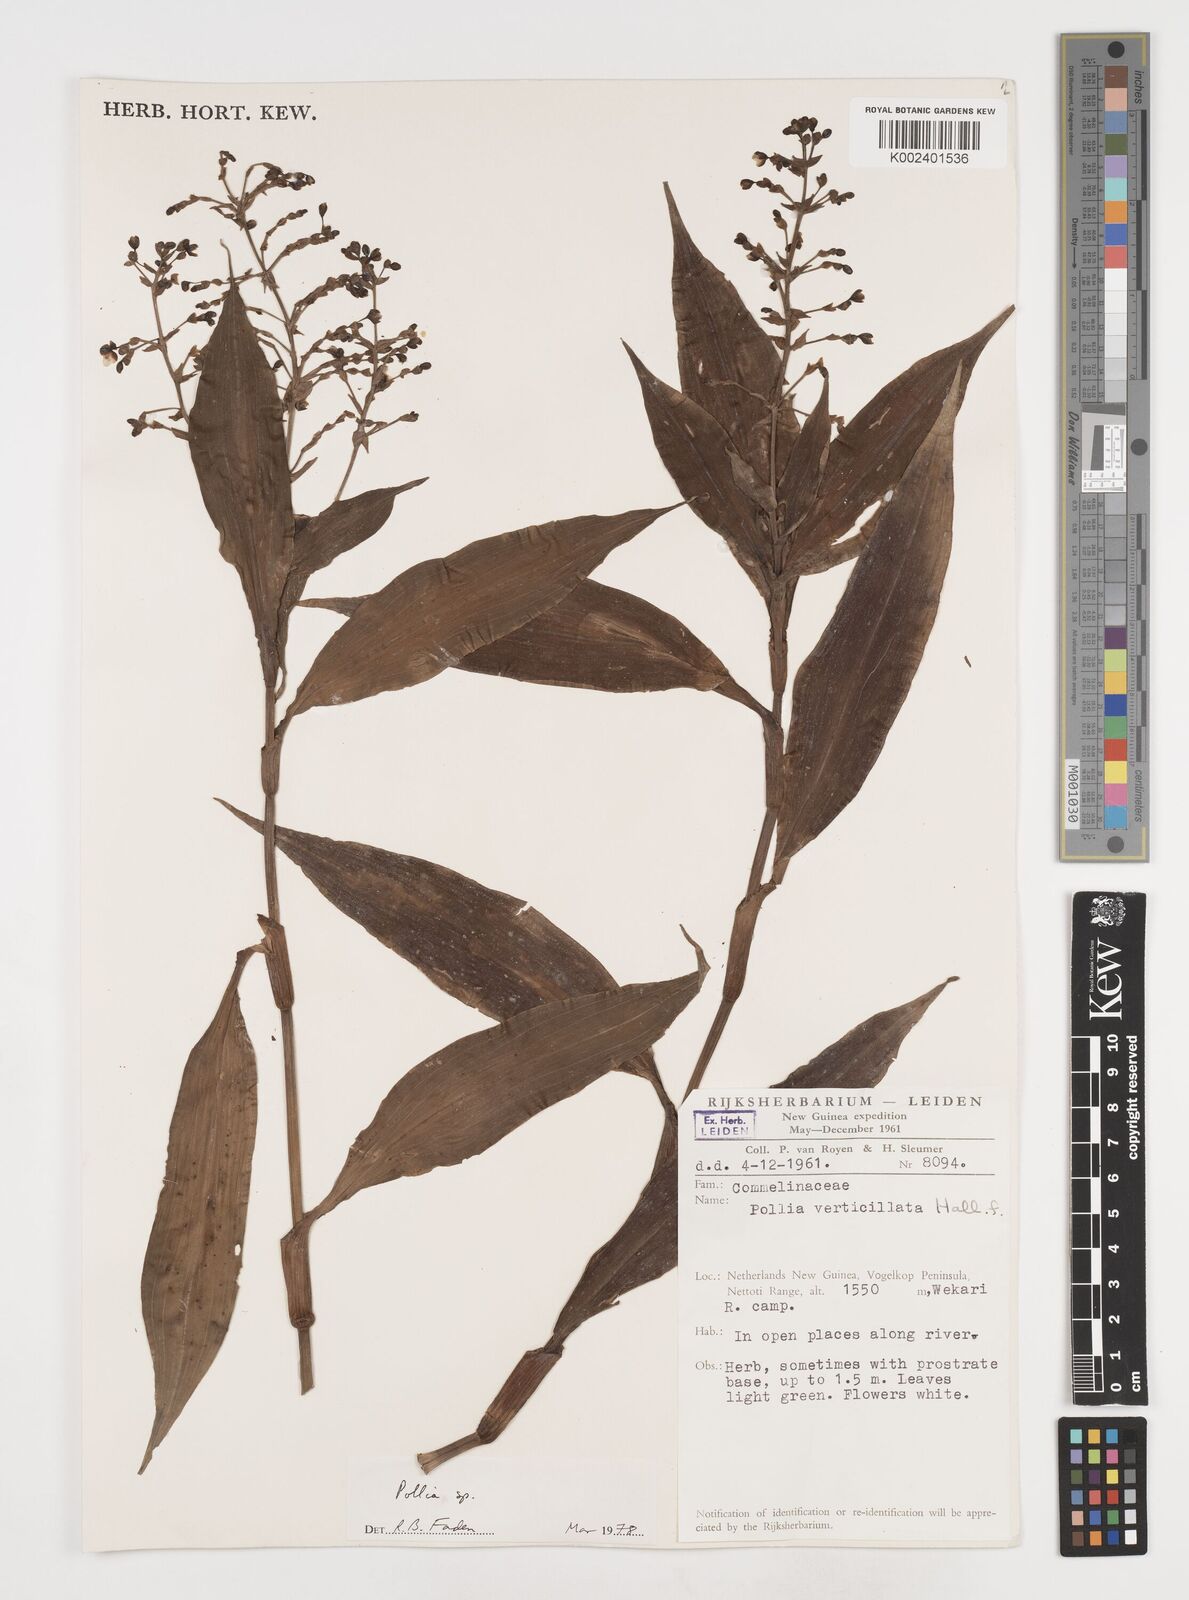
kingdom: Plantae
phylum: Tracheophyta
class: Liliopsida
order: Commelinales
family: Commelinaceae
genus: Pollia
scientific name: Pollia
